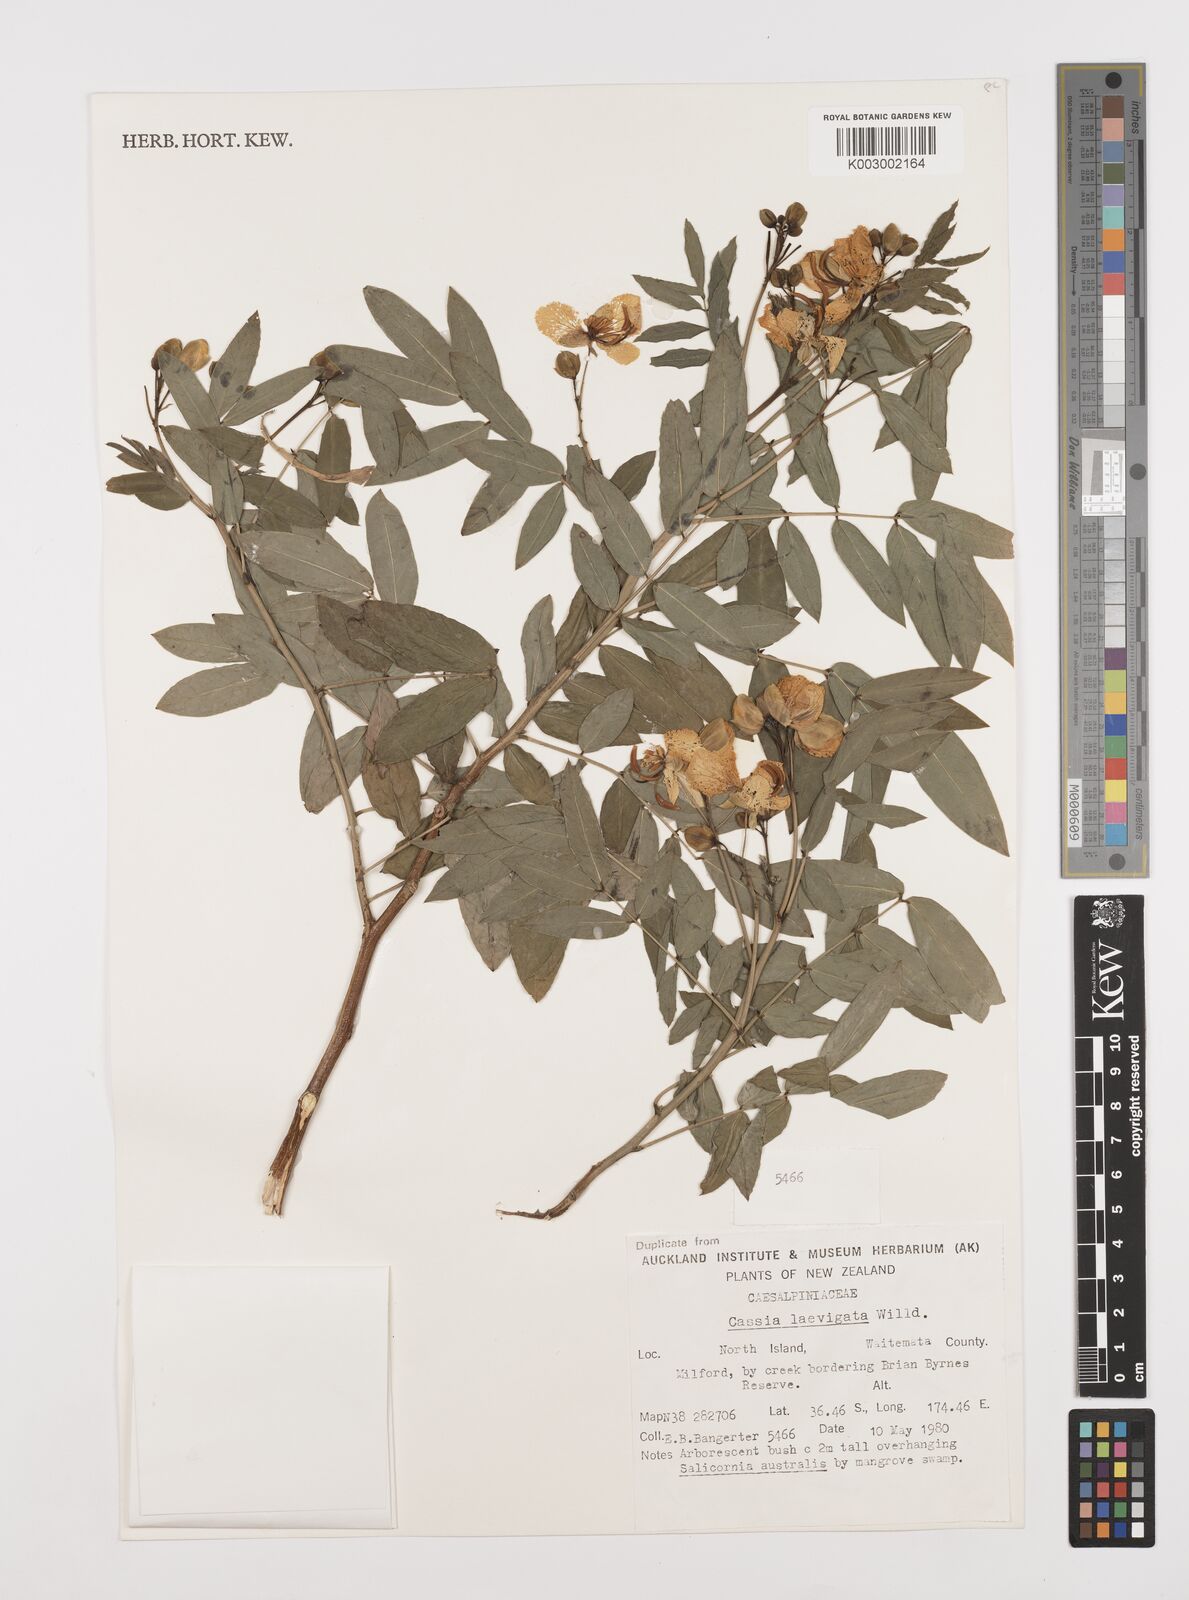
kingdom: Plantae
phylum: Tracheophyta
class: Magnoliopsida
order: Fabales
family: Fabaceae
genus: Senna
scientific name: Senna septemtrionalis
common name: Arsenic bush
